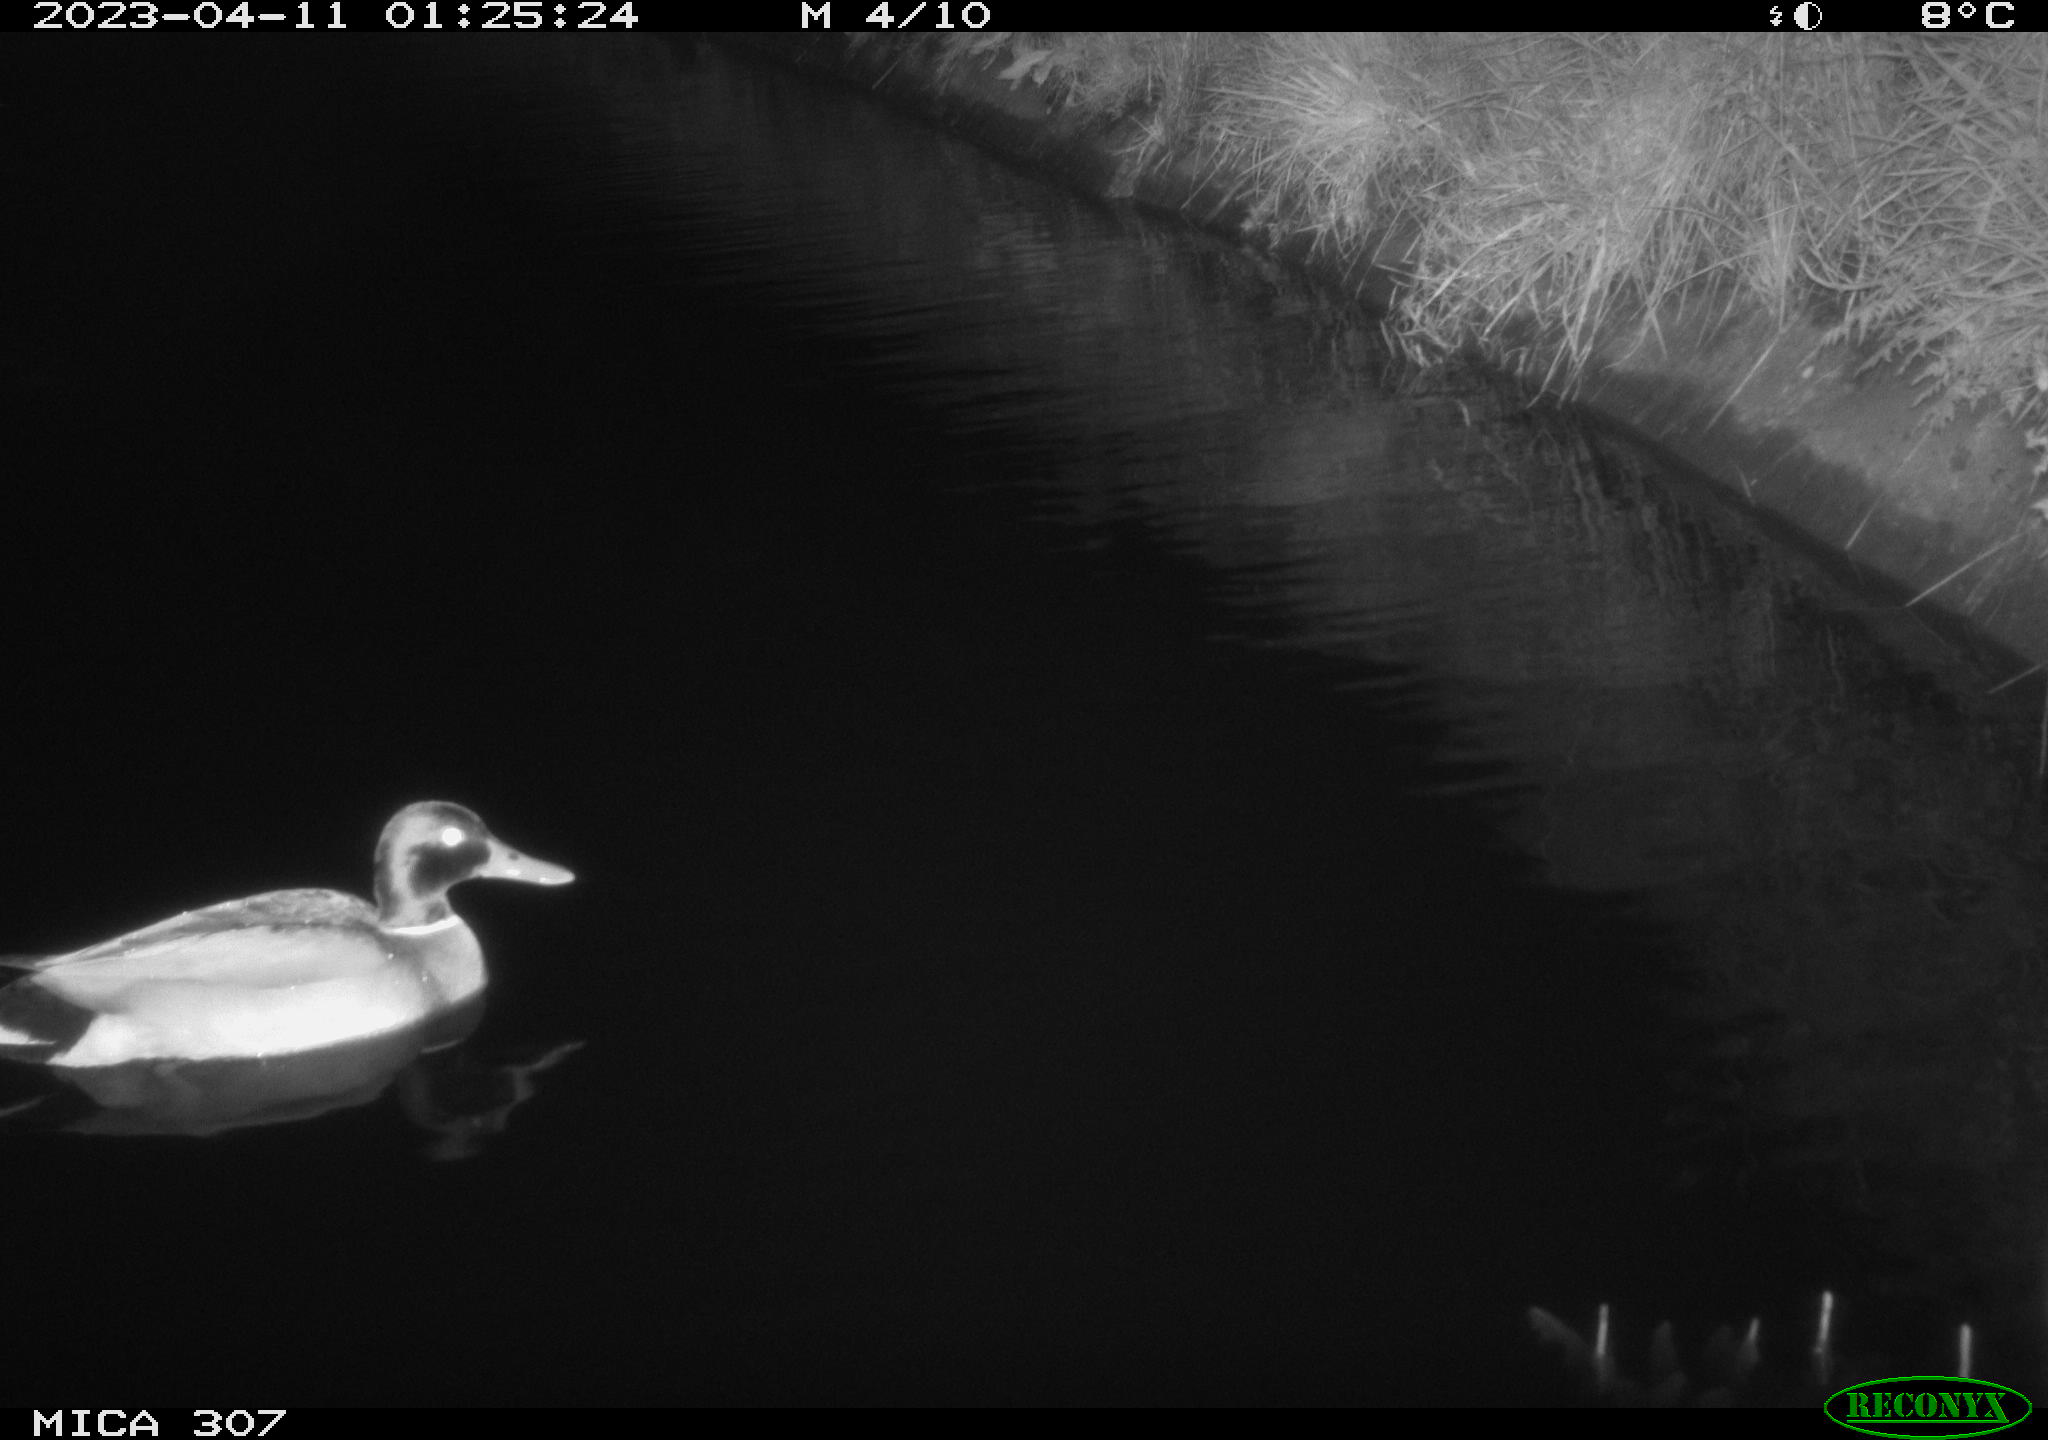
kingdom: Animalia
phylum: Chordata
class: Aves
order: Anseriformes
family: Anatidae
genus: Anas
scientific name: Anas
